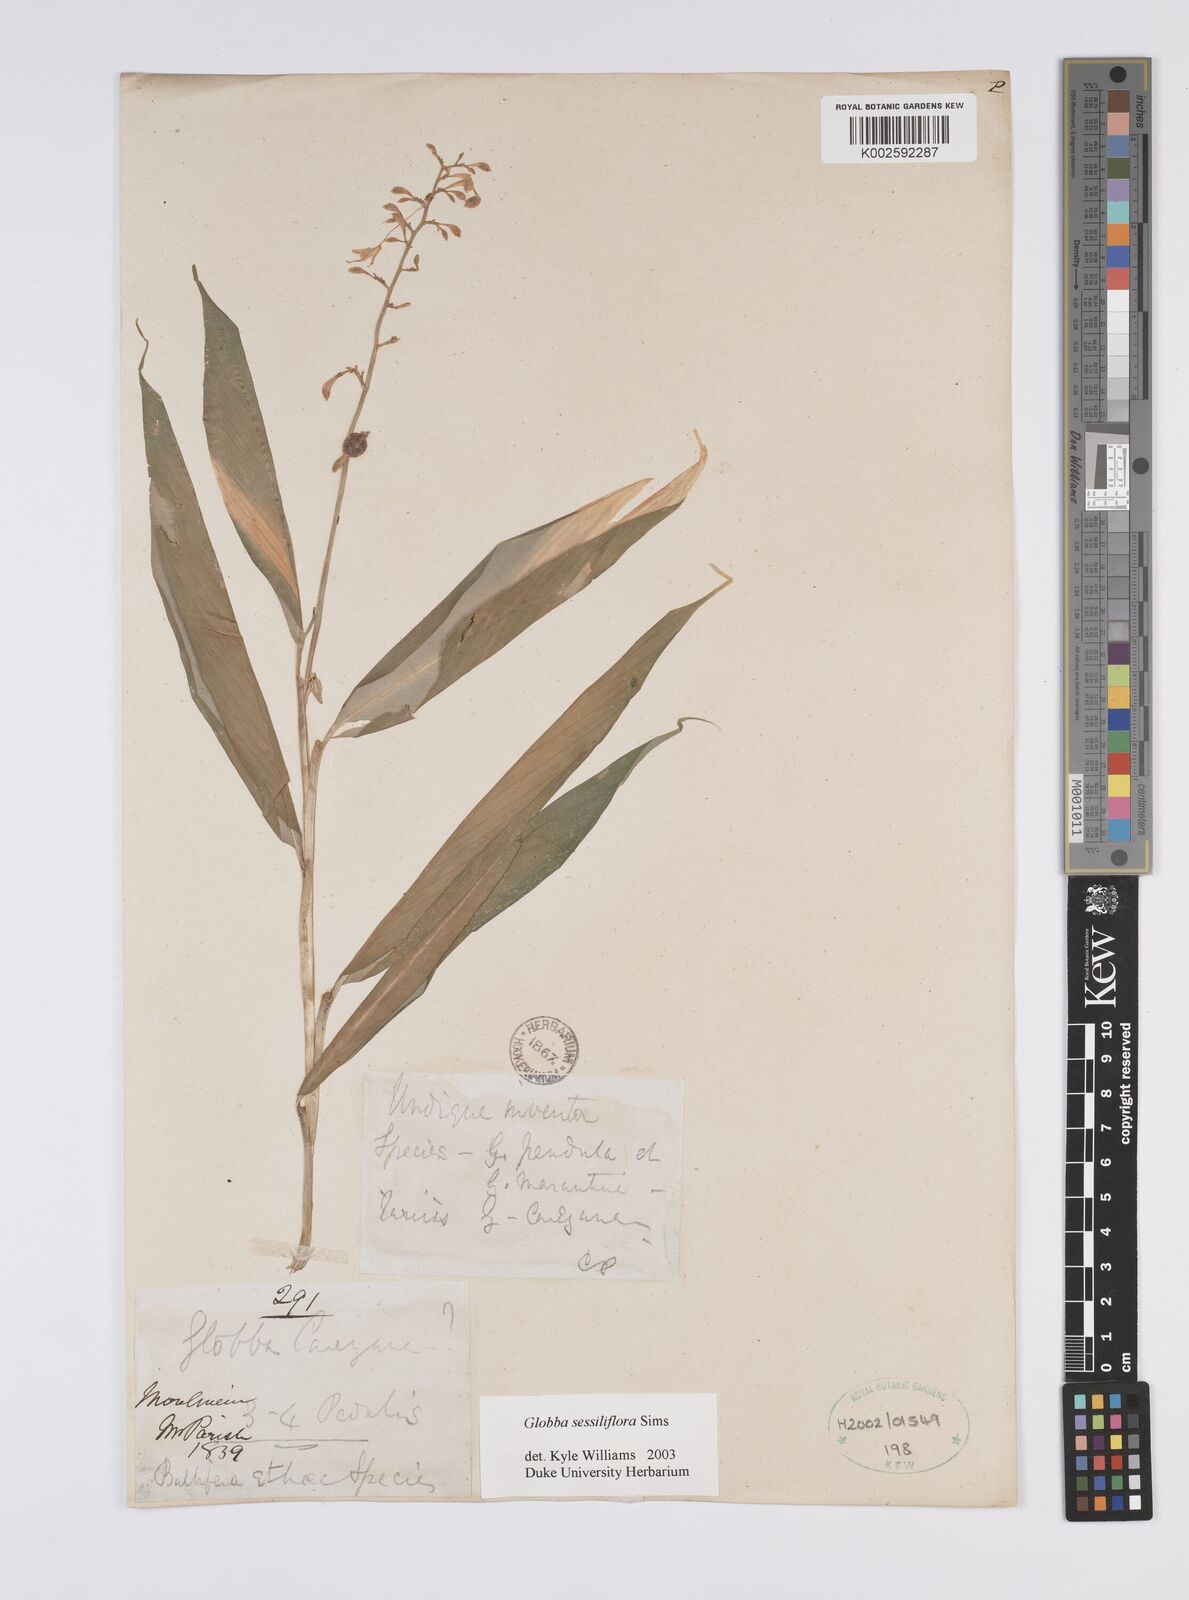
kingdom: Plantae
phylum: Tracheophyta
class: Liliopsida
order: Zingiberales
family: Zingiberaceae
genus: Globba
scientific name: Globba sessiliflora
